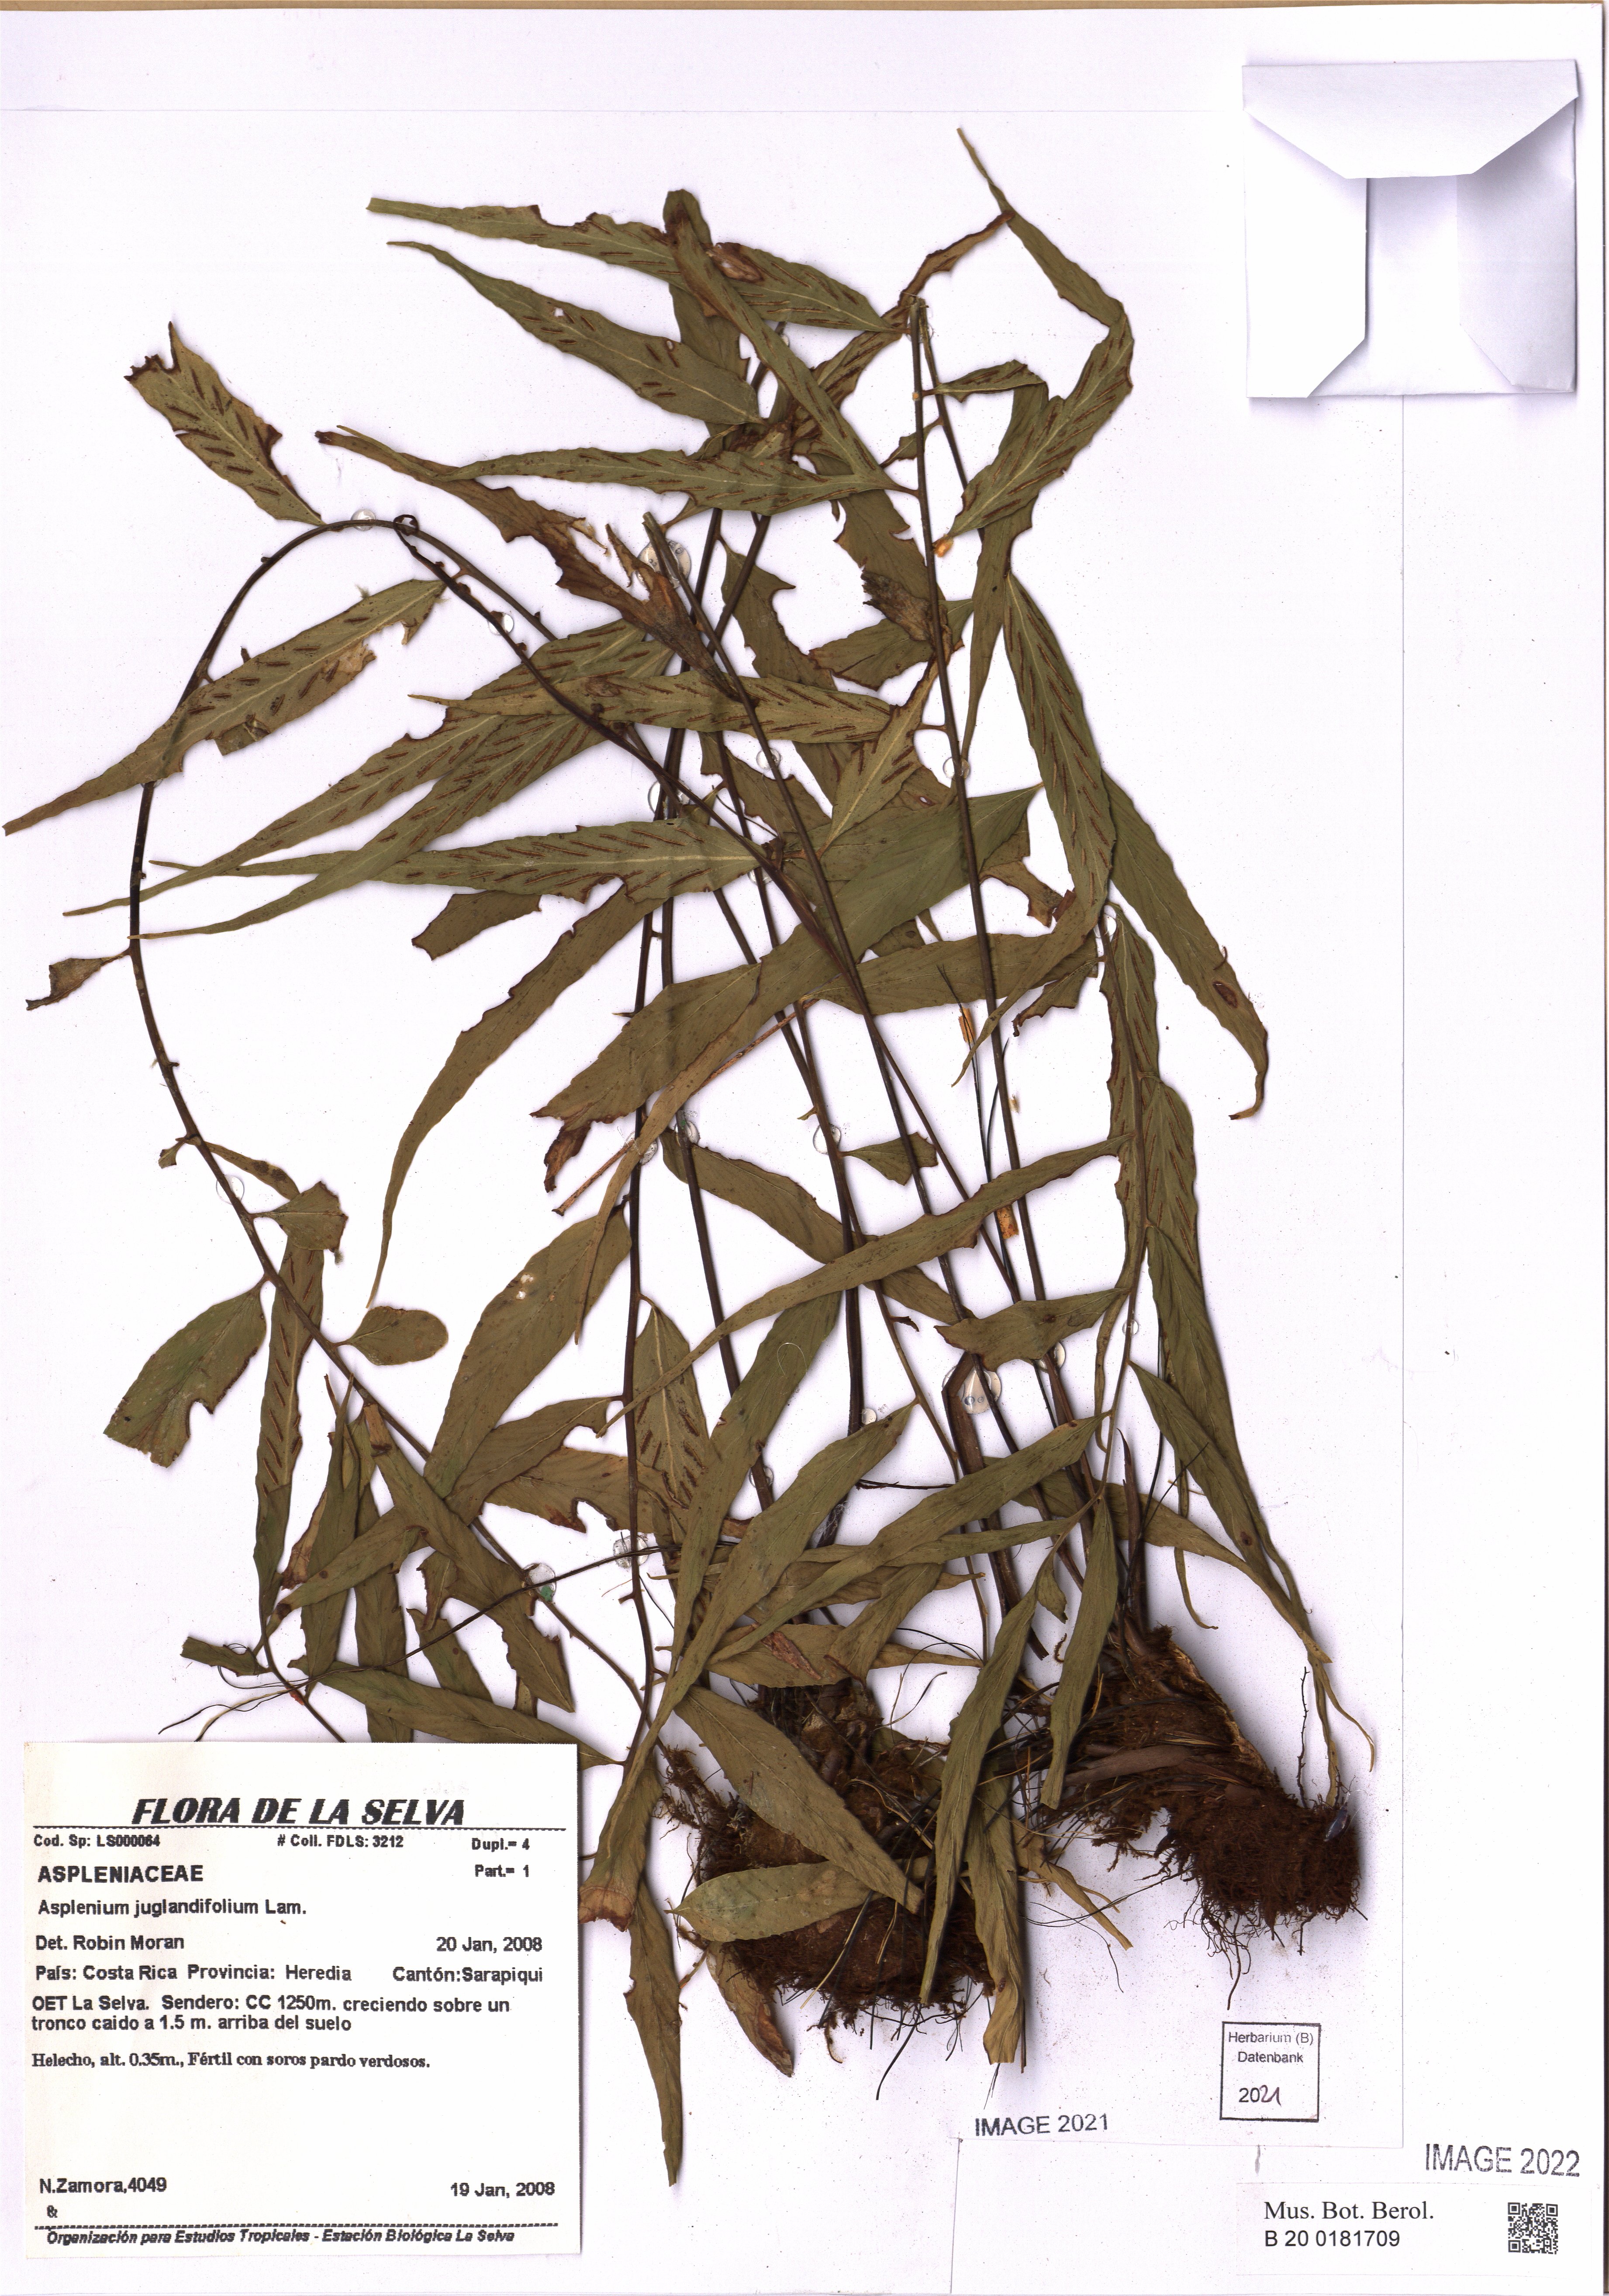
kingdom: Plantae
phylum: Tracheophyta
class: Polypodiopsida
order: Polypodiales
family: Aspleniaceae
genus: Asplenium
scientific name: Asplenium juglandifolium
